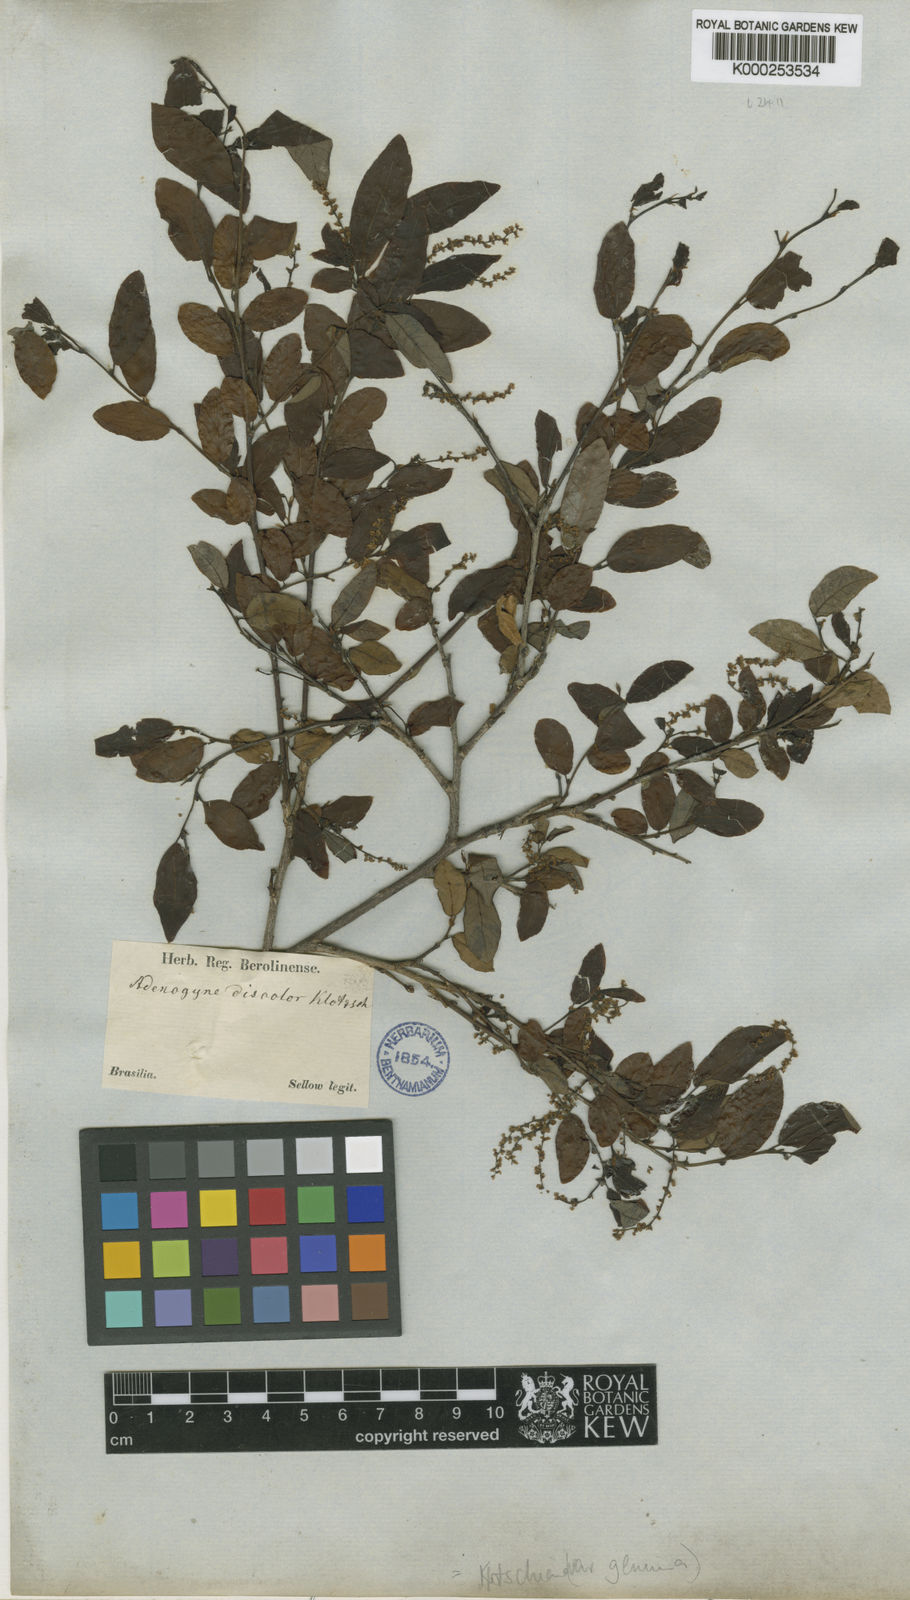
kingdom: Plantae
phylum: Tracheophyta
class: Magnoliopsida
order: Malpighiales
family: Euphorbiaceae
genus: Sebastiania
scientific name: Sebastiania
